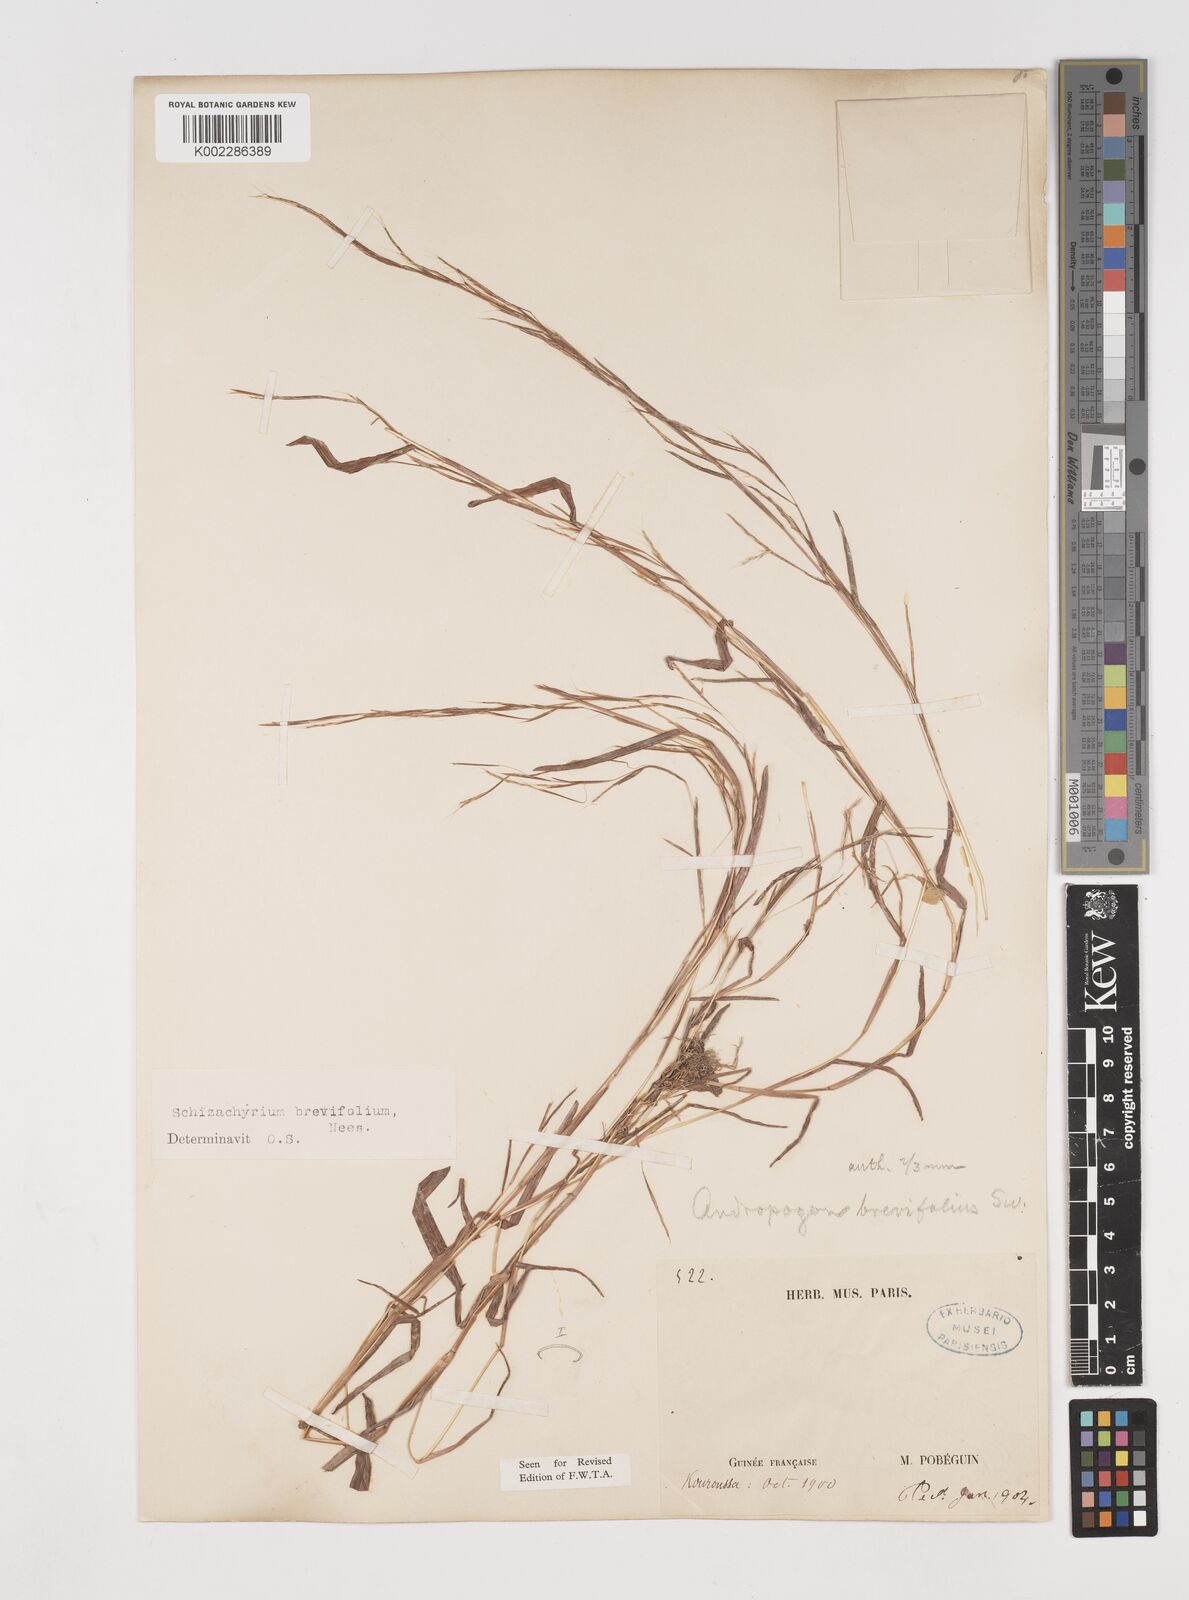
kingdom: Plantae
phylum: Tracheophyta
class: Liliopsida
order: Poales
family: Poaceae
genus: Schizachyrium
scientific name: Schizachyrium brevifolium
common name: Serillo dulce
